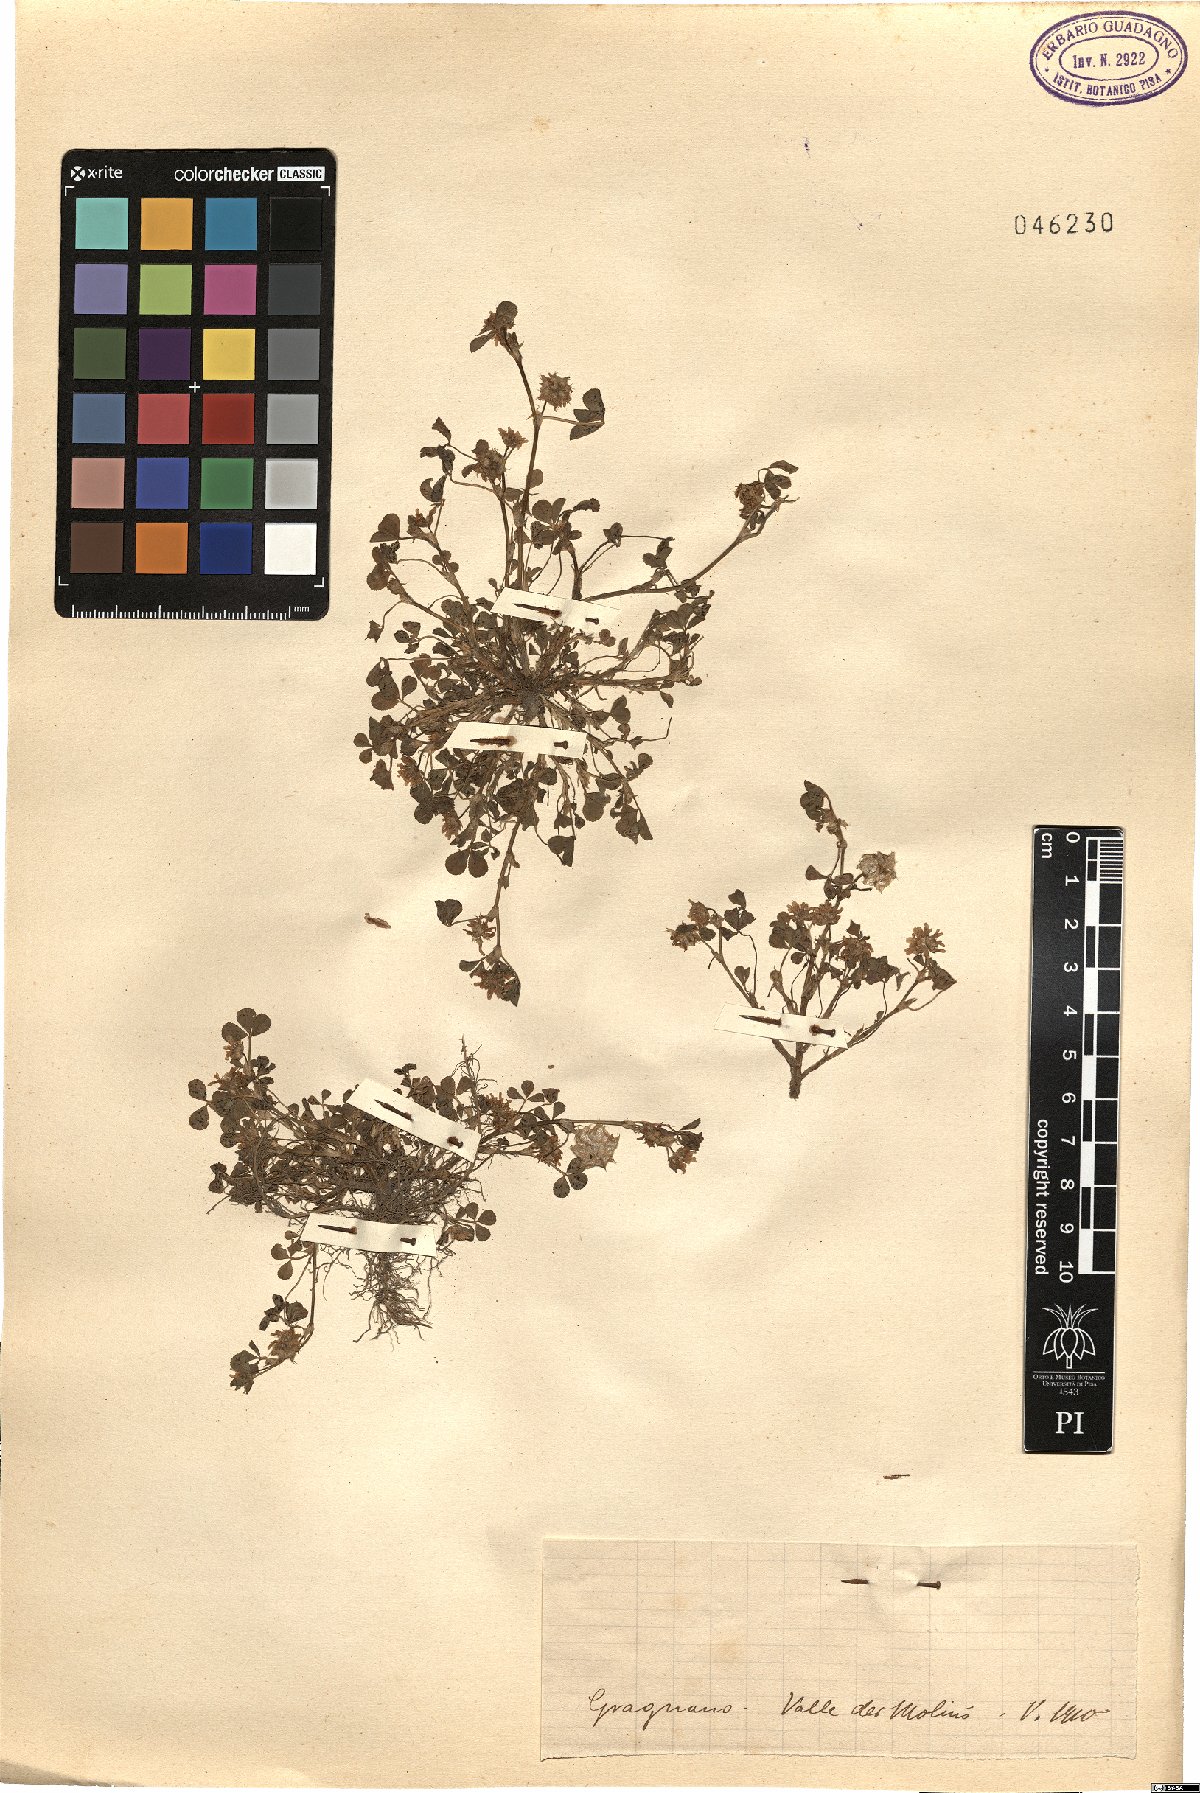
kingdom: Plantae
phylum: Tracheophyta
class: Magnoliopsida
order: Fabales
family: Fabaceae
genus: Trifolium
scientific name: Trifolium
